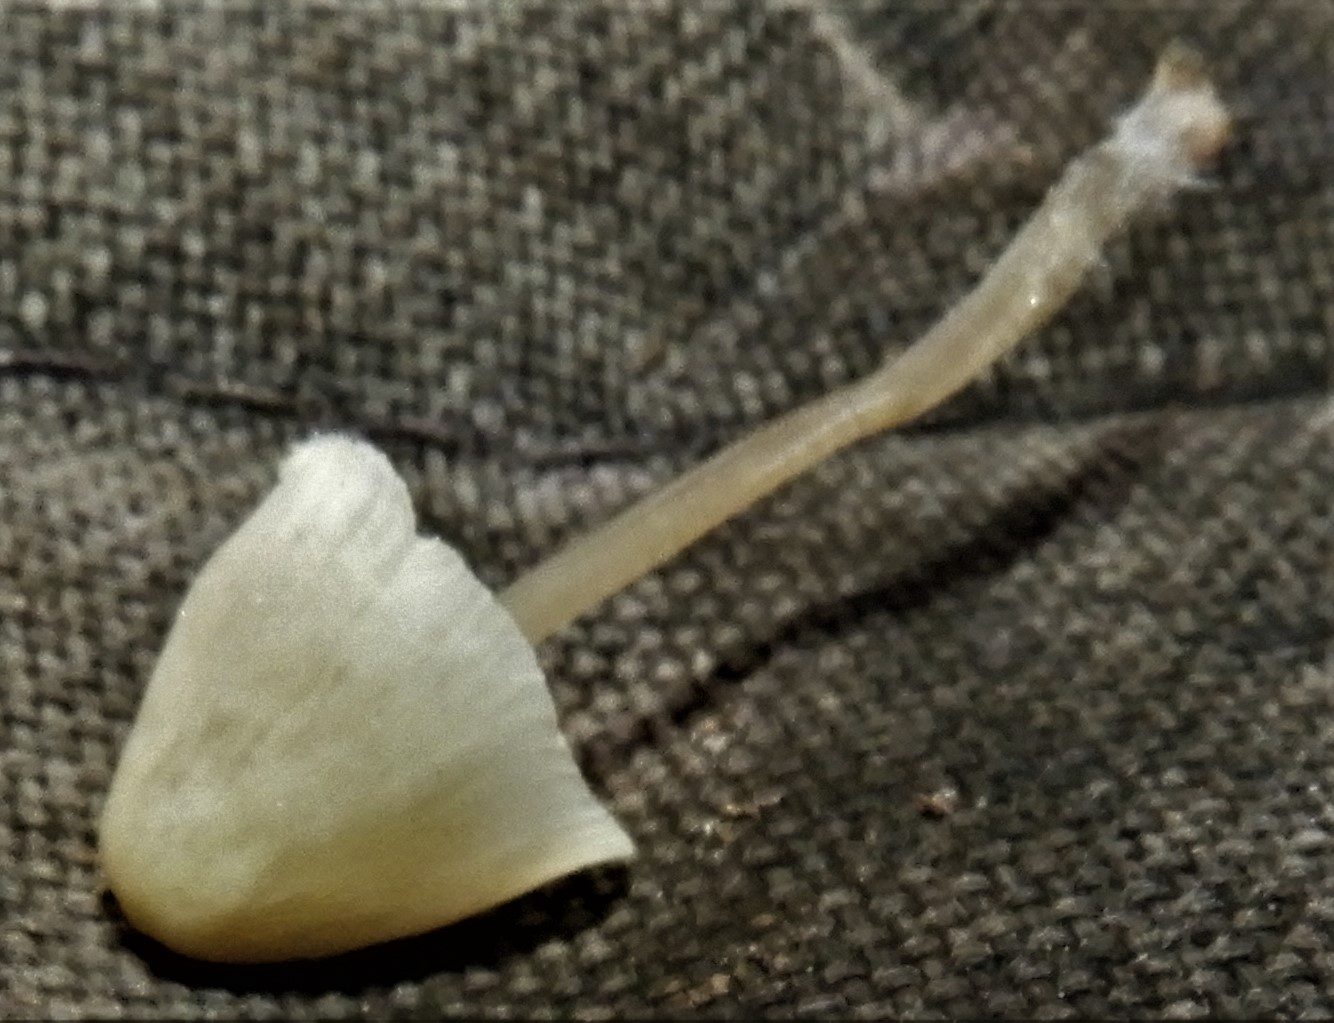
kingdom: Fungi
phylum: Basidiomycota
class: Agaricomycetes
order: Agaricales
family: Mycenaceae
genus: Mycena
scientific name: Mycena
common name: huesvamp
